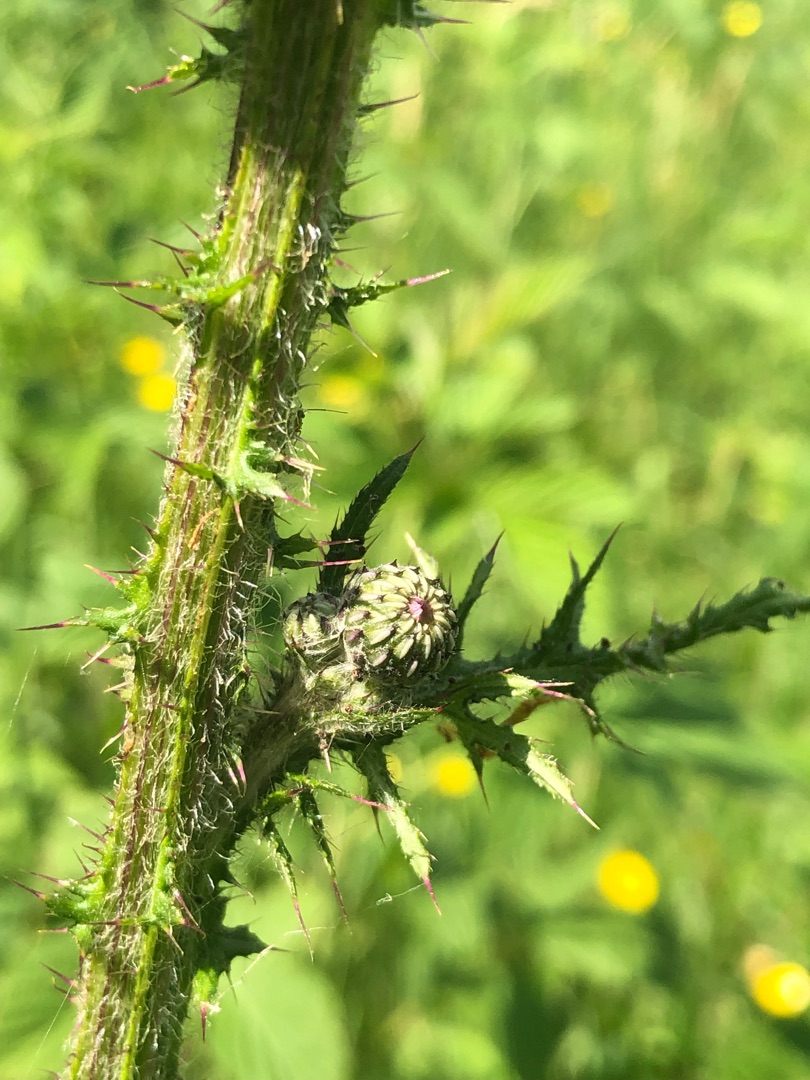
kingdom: Plantae
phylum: Tracheophyta
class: Magnoliopsida
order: Asterales
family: Asteraceae
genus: Cirsium
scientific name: Cirsium palustre
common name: Kær-tidsel
